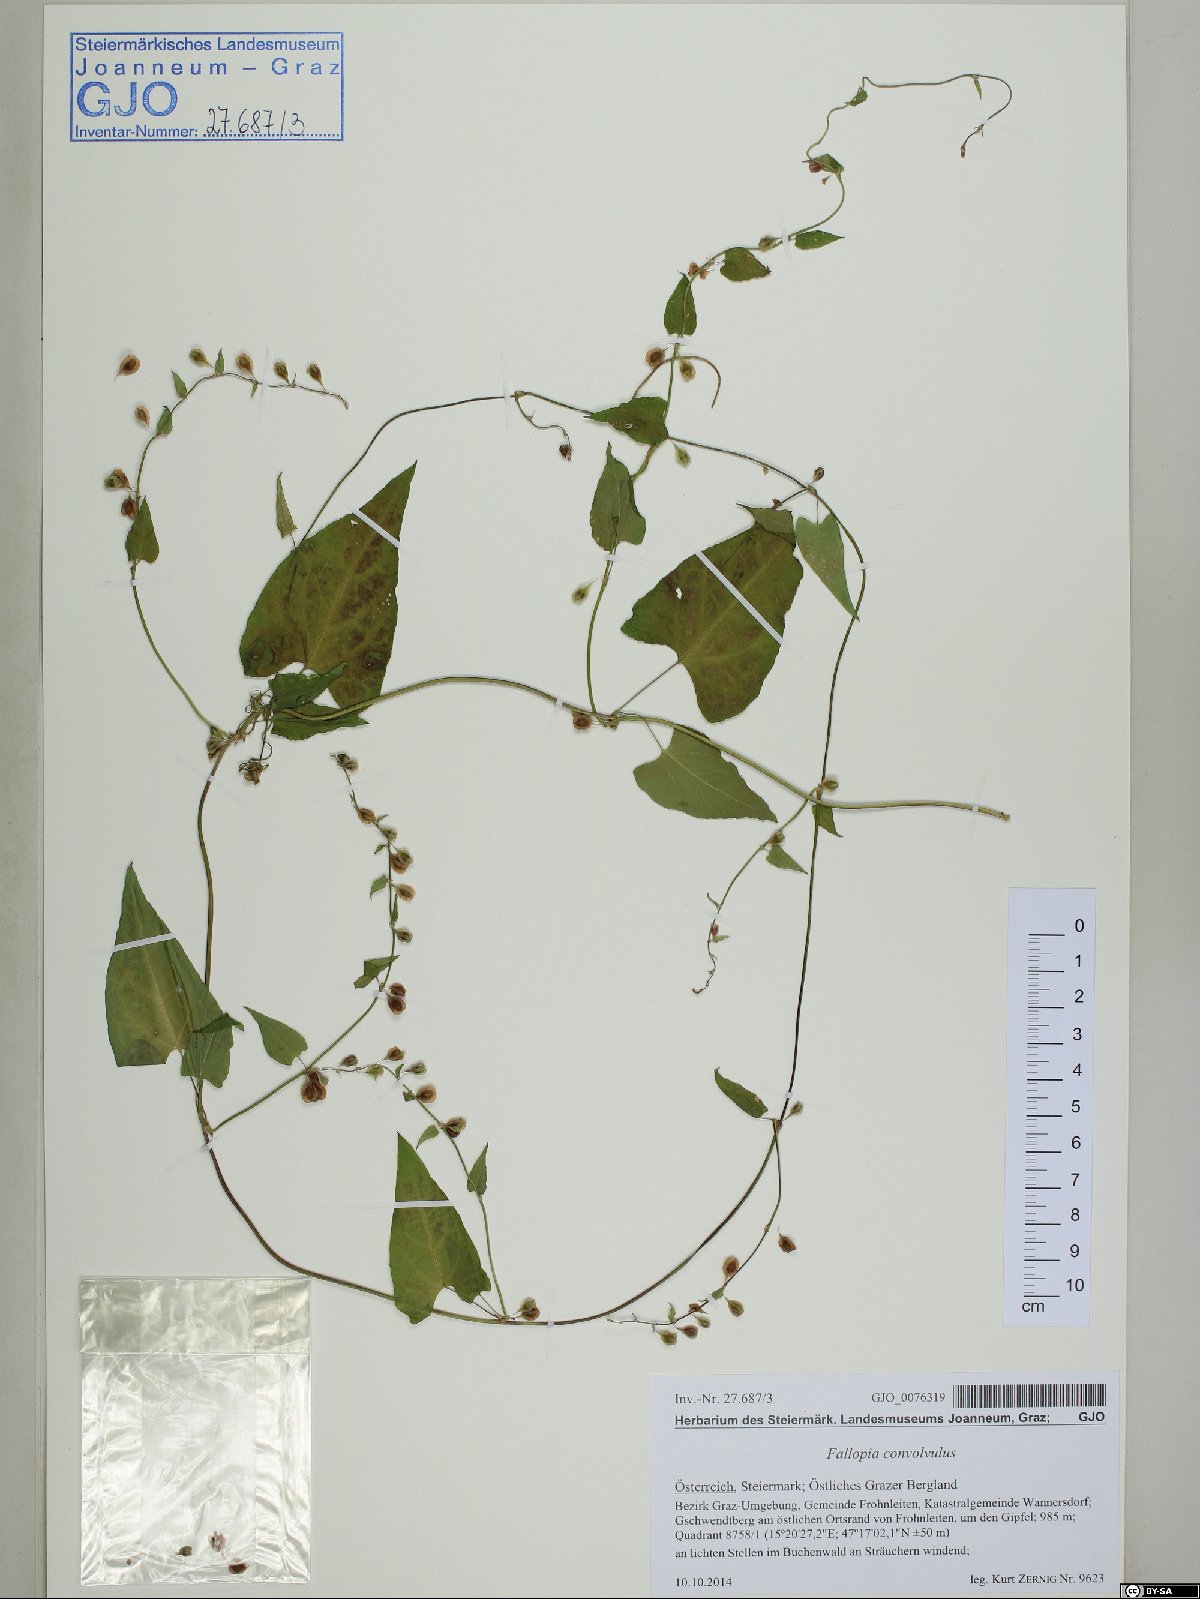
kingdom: Plantae
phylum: Tracheophyta
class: Magnoliopsida
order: Caryophyllales
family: Polygonaceae
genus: Fallopia
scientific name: Fallopia convolvulus
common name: Black bindweed
